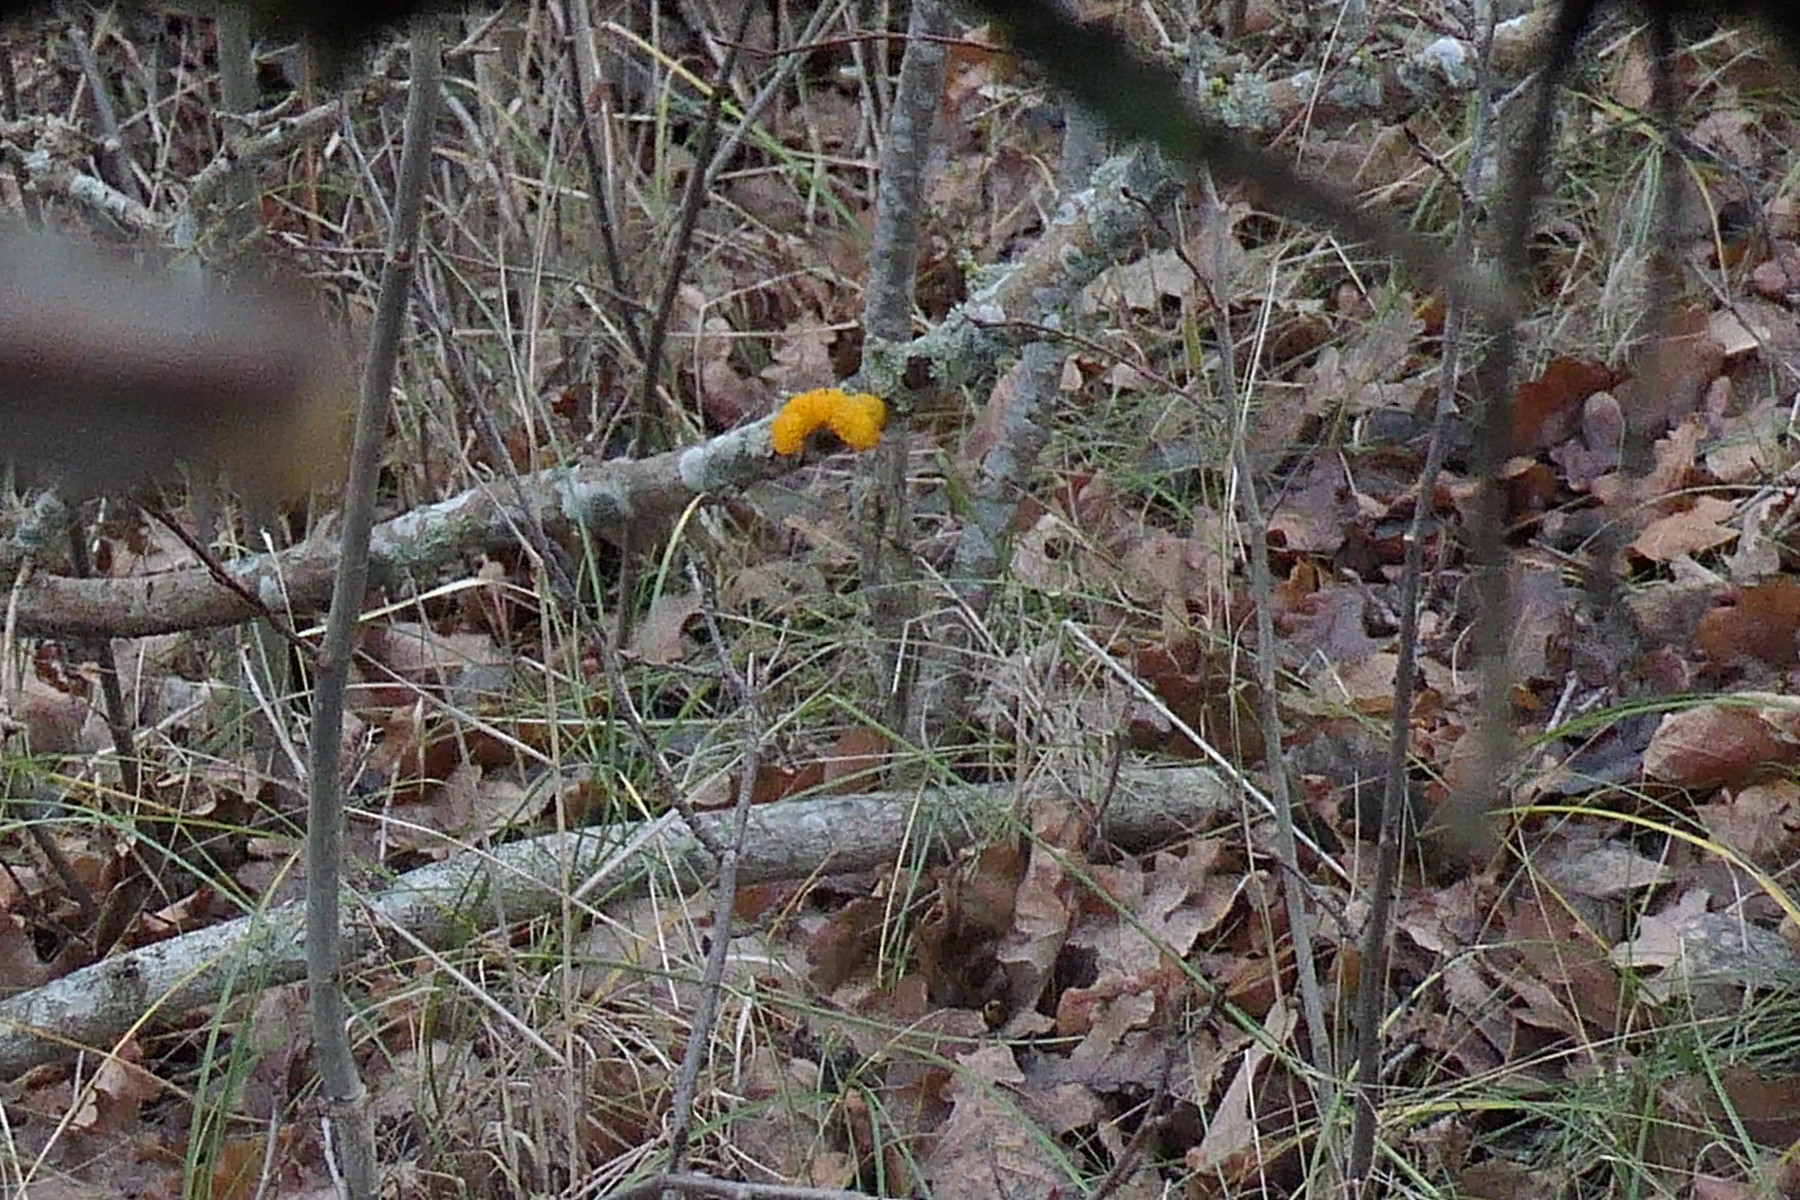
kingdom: Fungi
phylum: Basidiomycota
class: Tremellomycetes
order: Tremellales
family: Tremellaceae
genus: Tremella
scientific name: Tremella mesenterica
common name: gul bævresvamp
